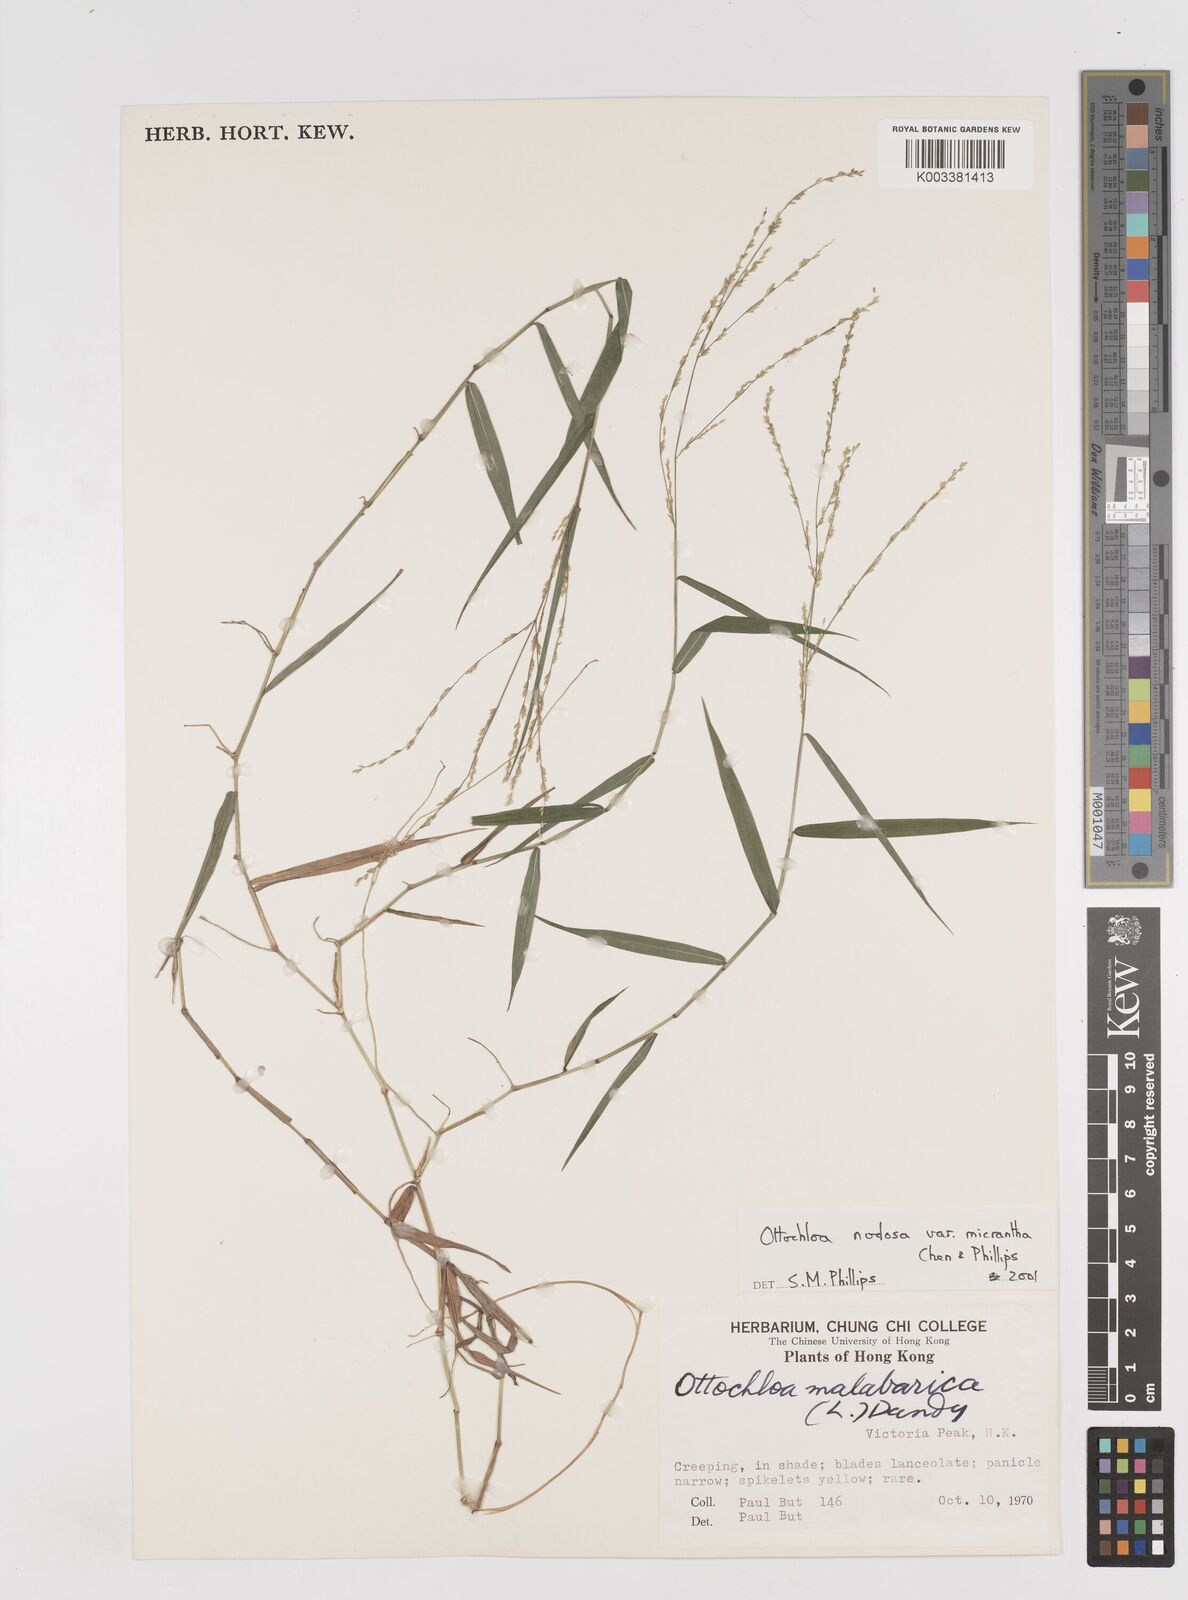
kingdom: Plantae
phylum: Tracheophyta
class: Liliopsida
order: Poales
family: Poaceae
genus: Ottochloa
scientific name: Ottochloa nodosa
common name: Slender-panic grass
